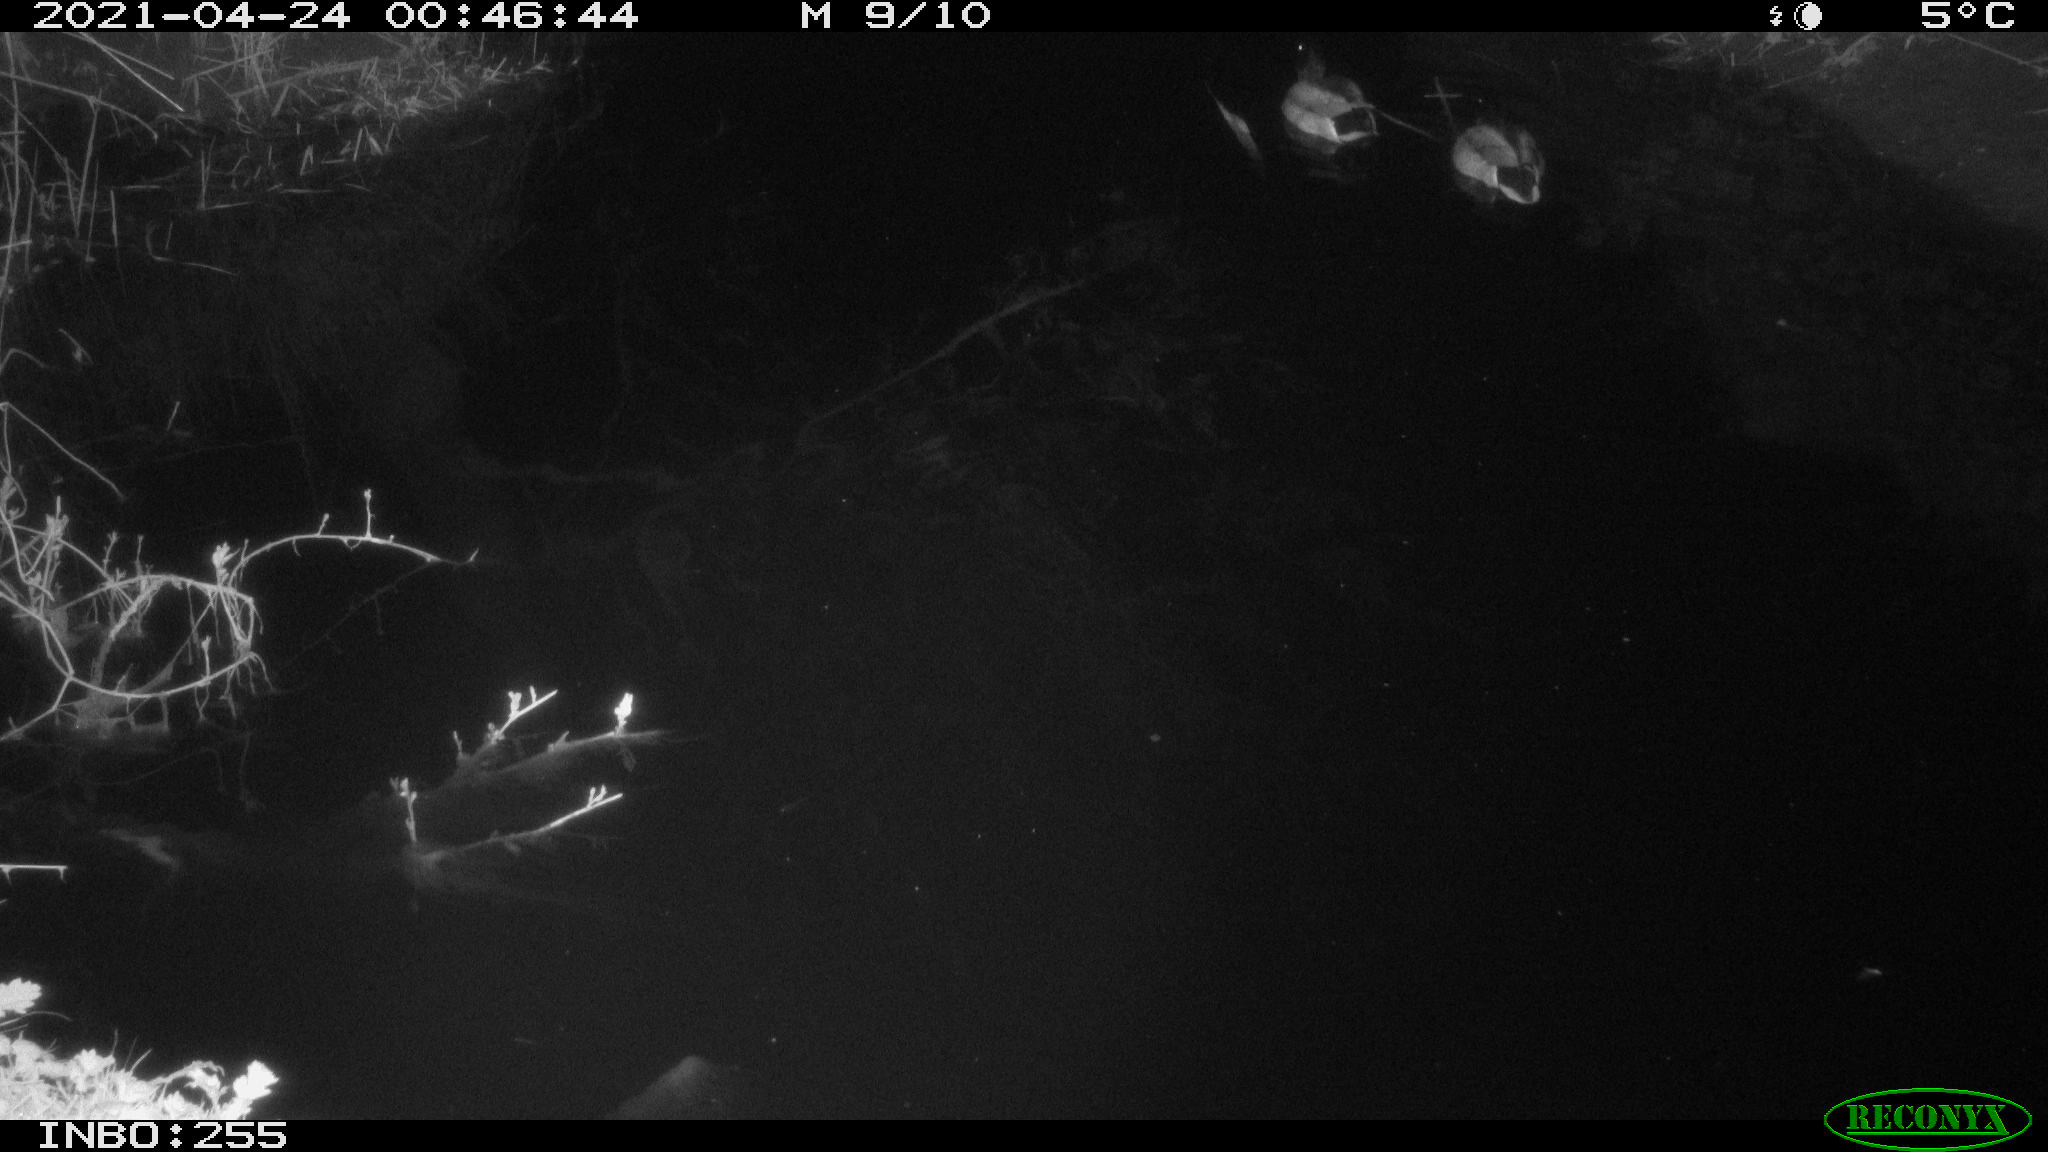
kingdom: Animalia
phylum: Chordata
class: Aves
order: Anseriformes
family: Anatidae
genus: Anas
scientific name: Anas platyrhynchos
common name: Mallard
